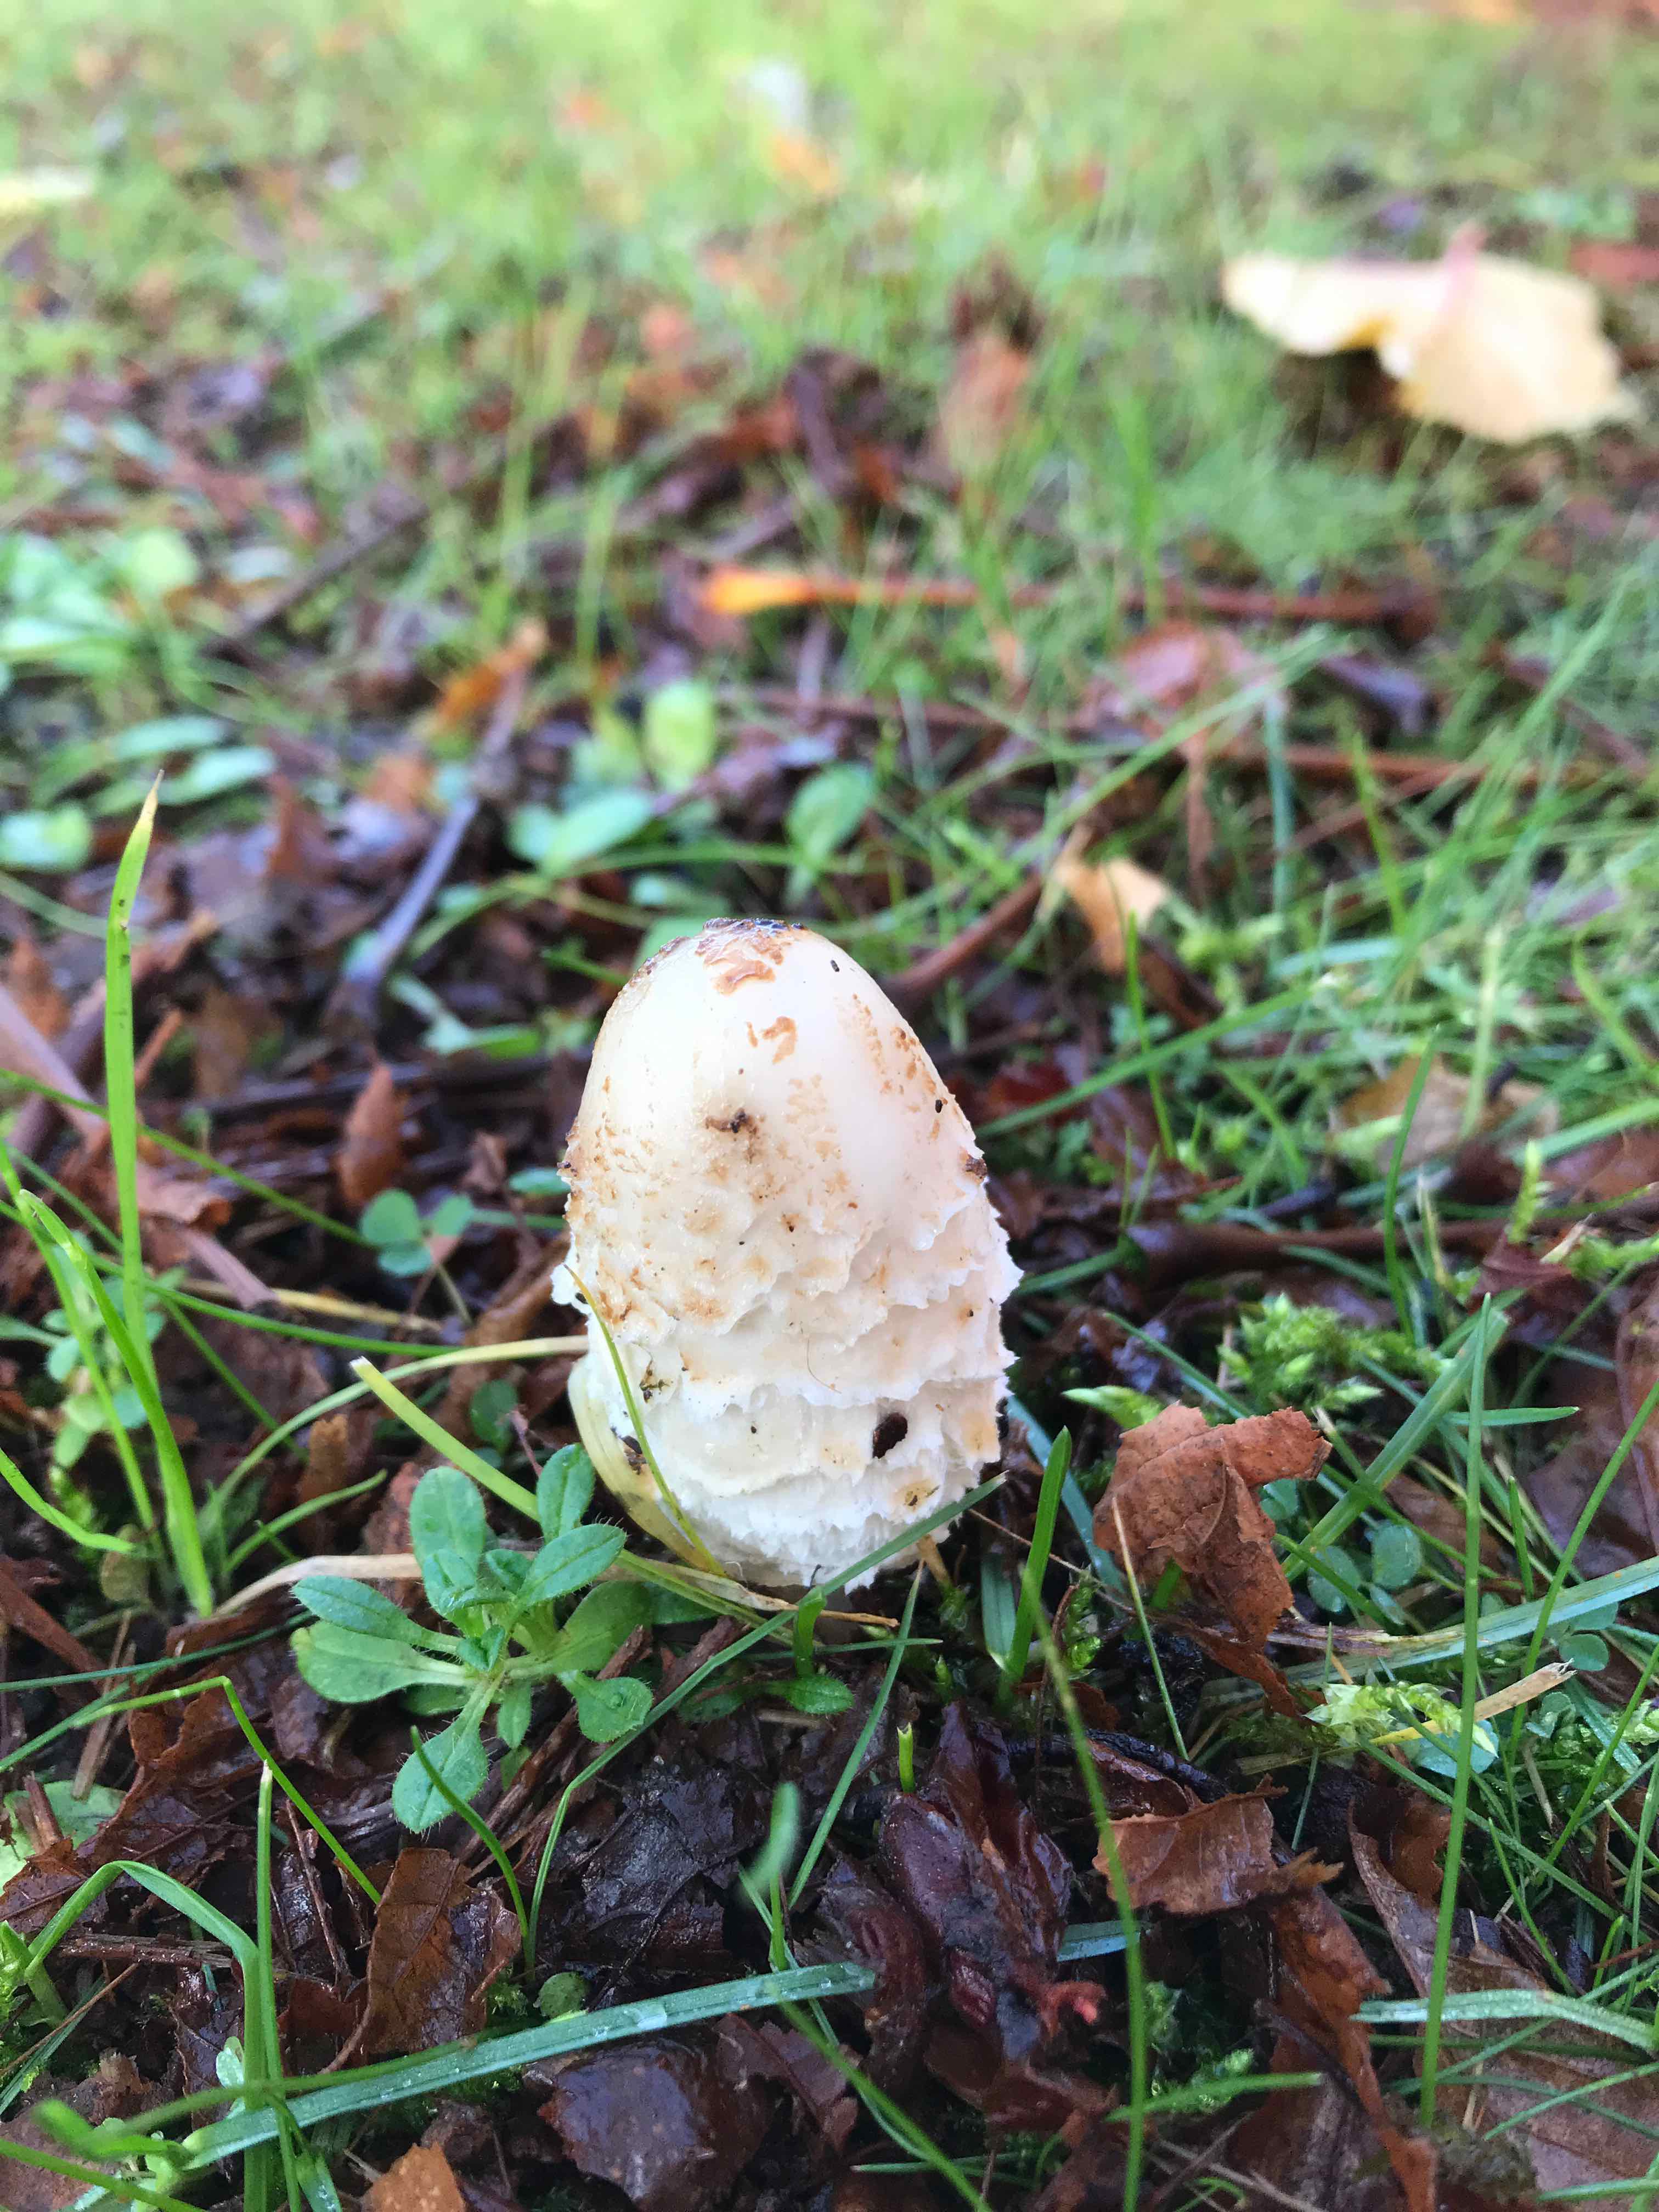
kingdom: Fungi
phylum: Basidiomycota
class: Agaricomycetes
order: Agaricales
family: Agaricaceae
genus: Coprinus
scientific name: Coprinus comatus
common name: stor parykhat
